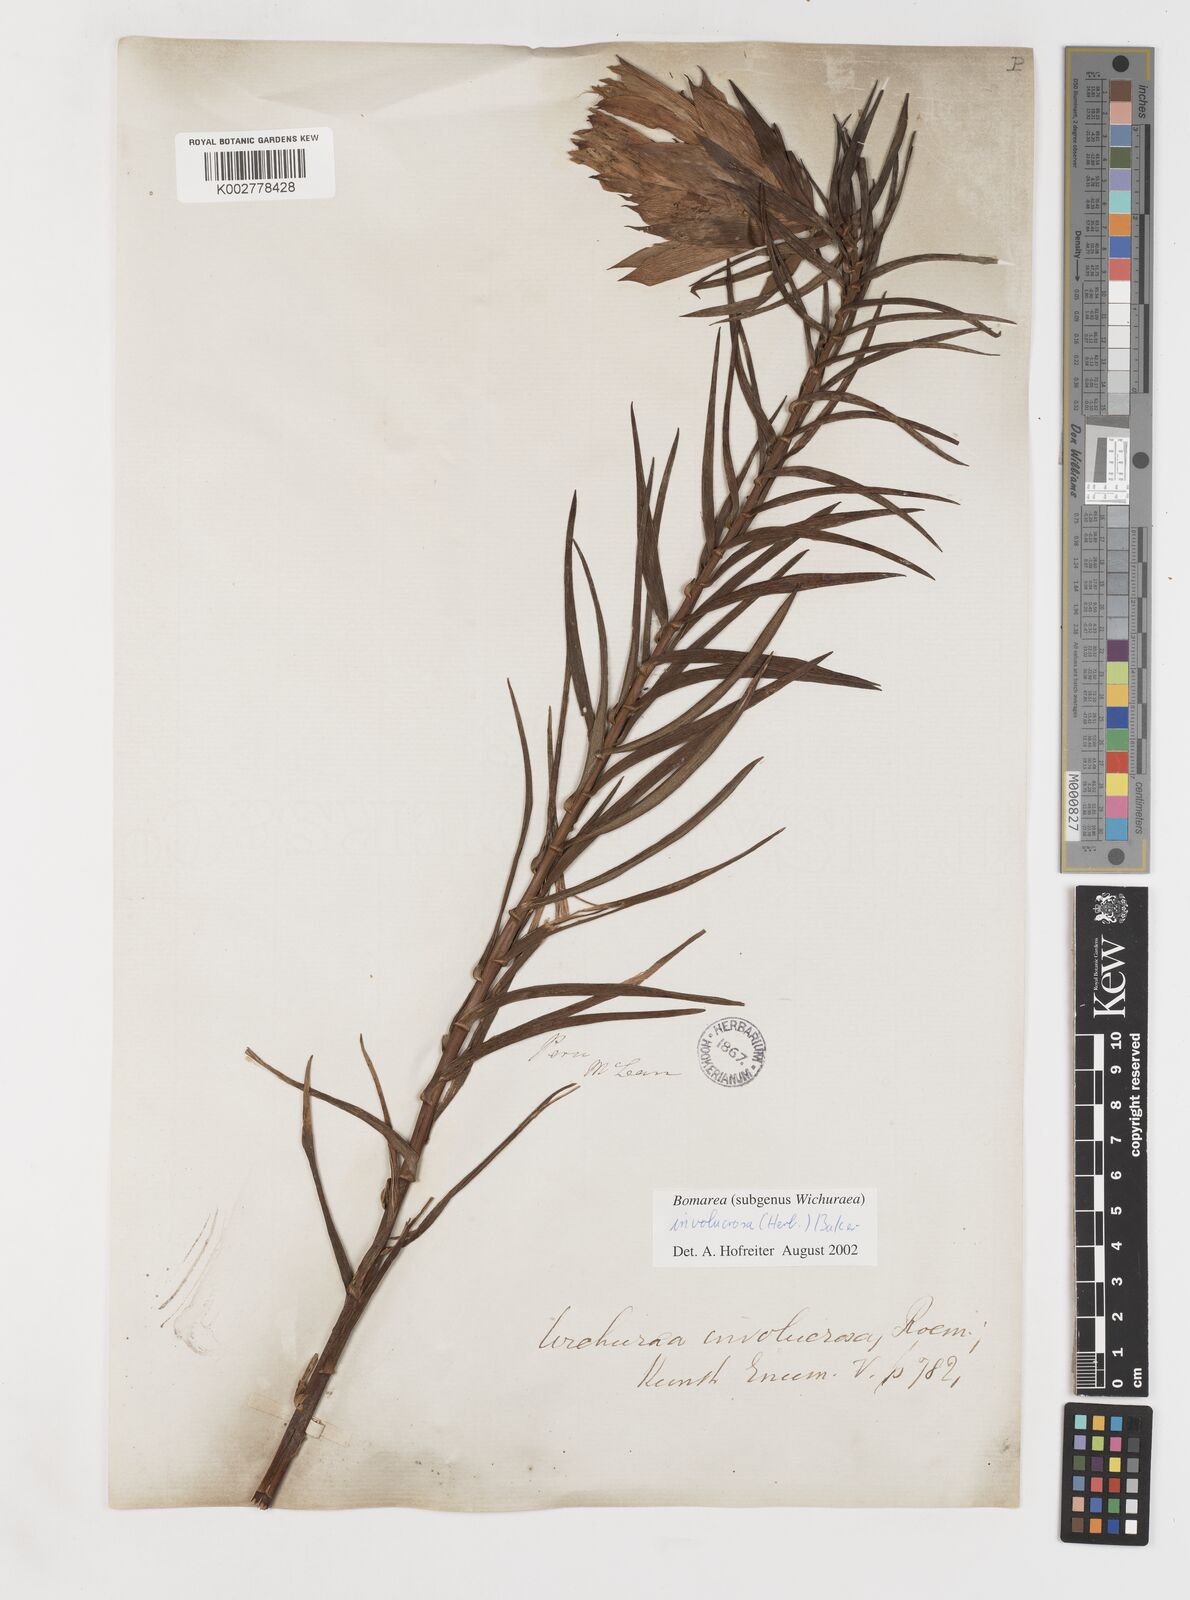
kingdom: Plantae
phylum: Tracheophyta
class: Liliopsida
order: Liliales
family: Alstroemeriaceae
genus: Bomarea
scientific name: Bomarea involucrosa
